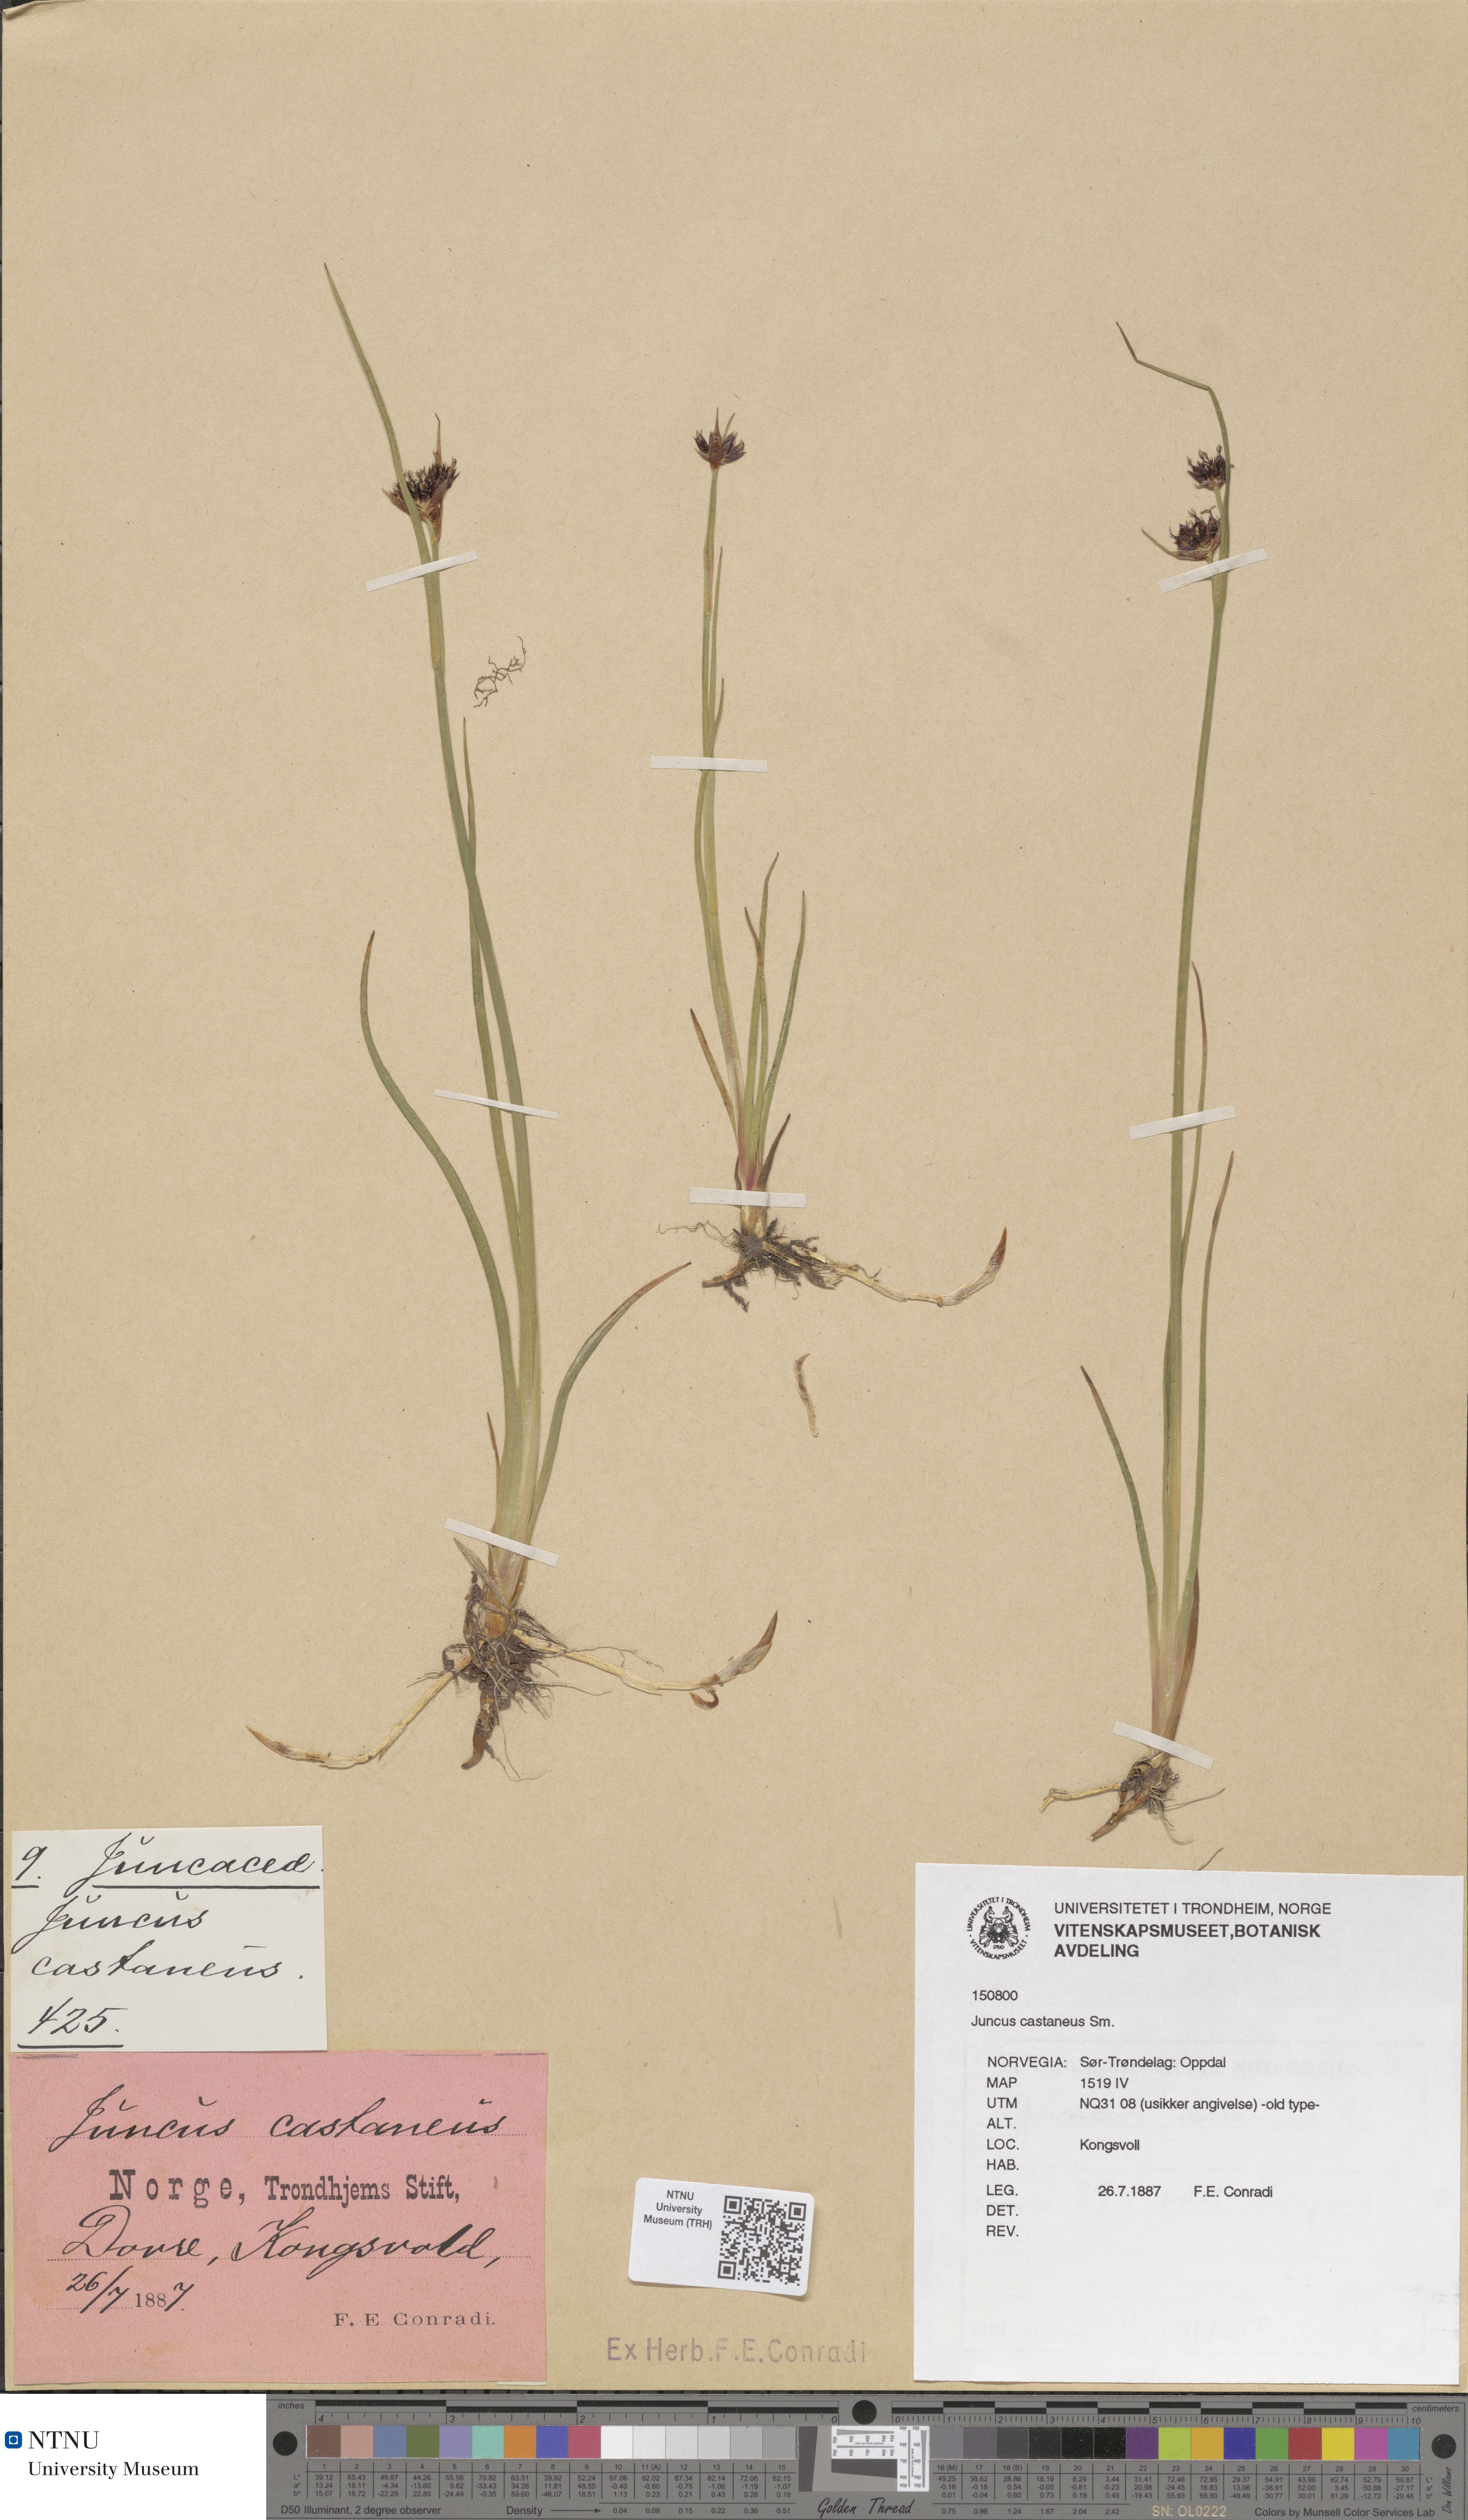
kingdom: Plantae
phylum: Tracheophyta
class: Liliopsida
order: Poales
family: Juncaceae
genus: Juncus
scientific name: Juncus castaneus
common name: Chestnut rush
